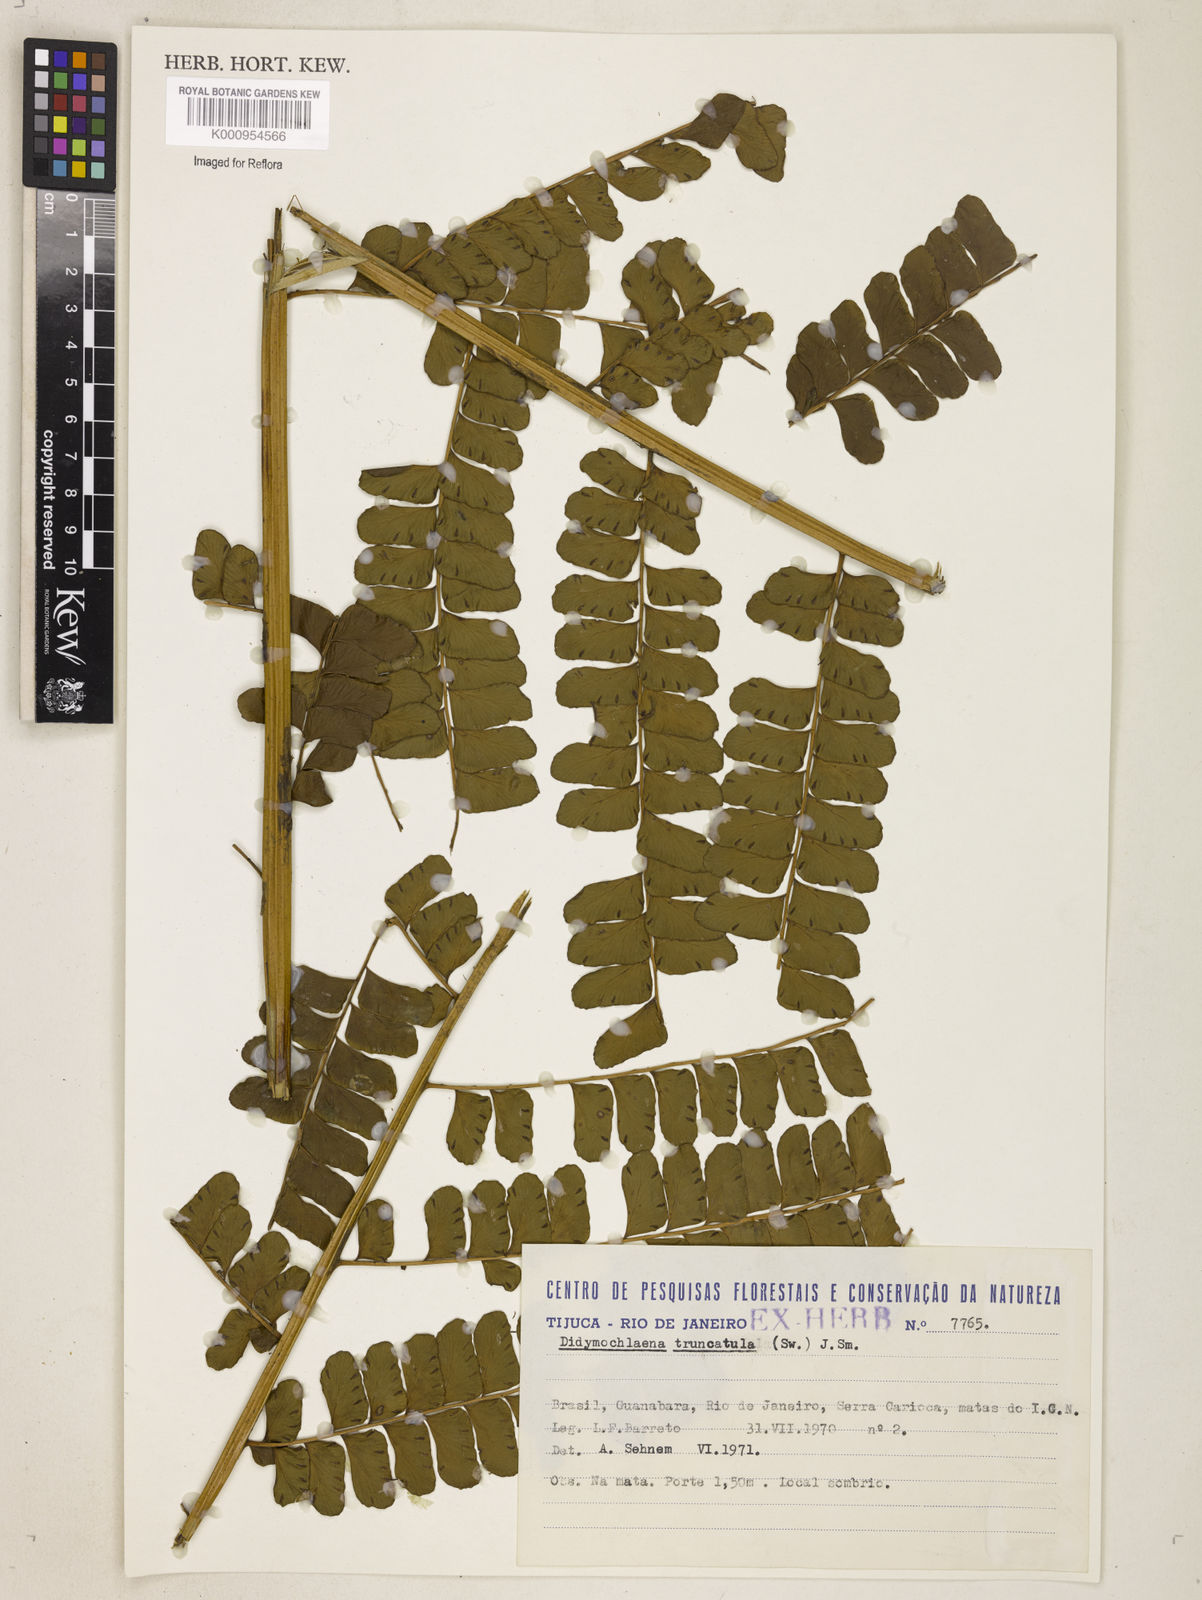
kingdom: Plantae
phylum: Tracheophyta
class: Polypodiopsida
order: Polypodiales
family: Didymochlaenaceae
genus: Didymochlaena
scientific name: Didymochlaena truncatula
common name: Mahogany fern
